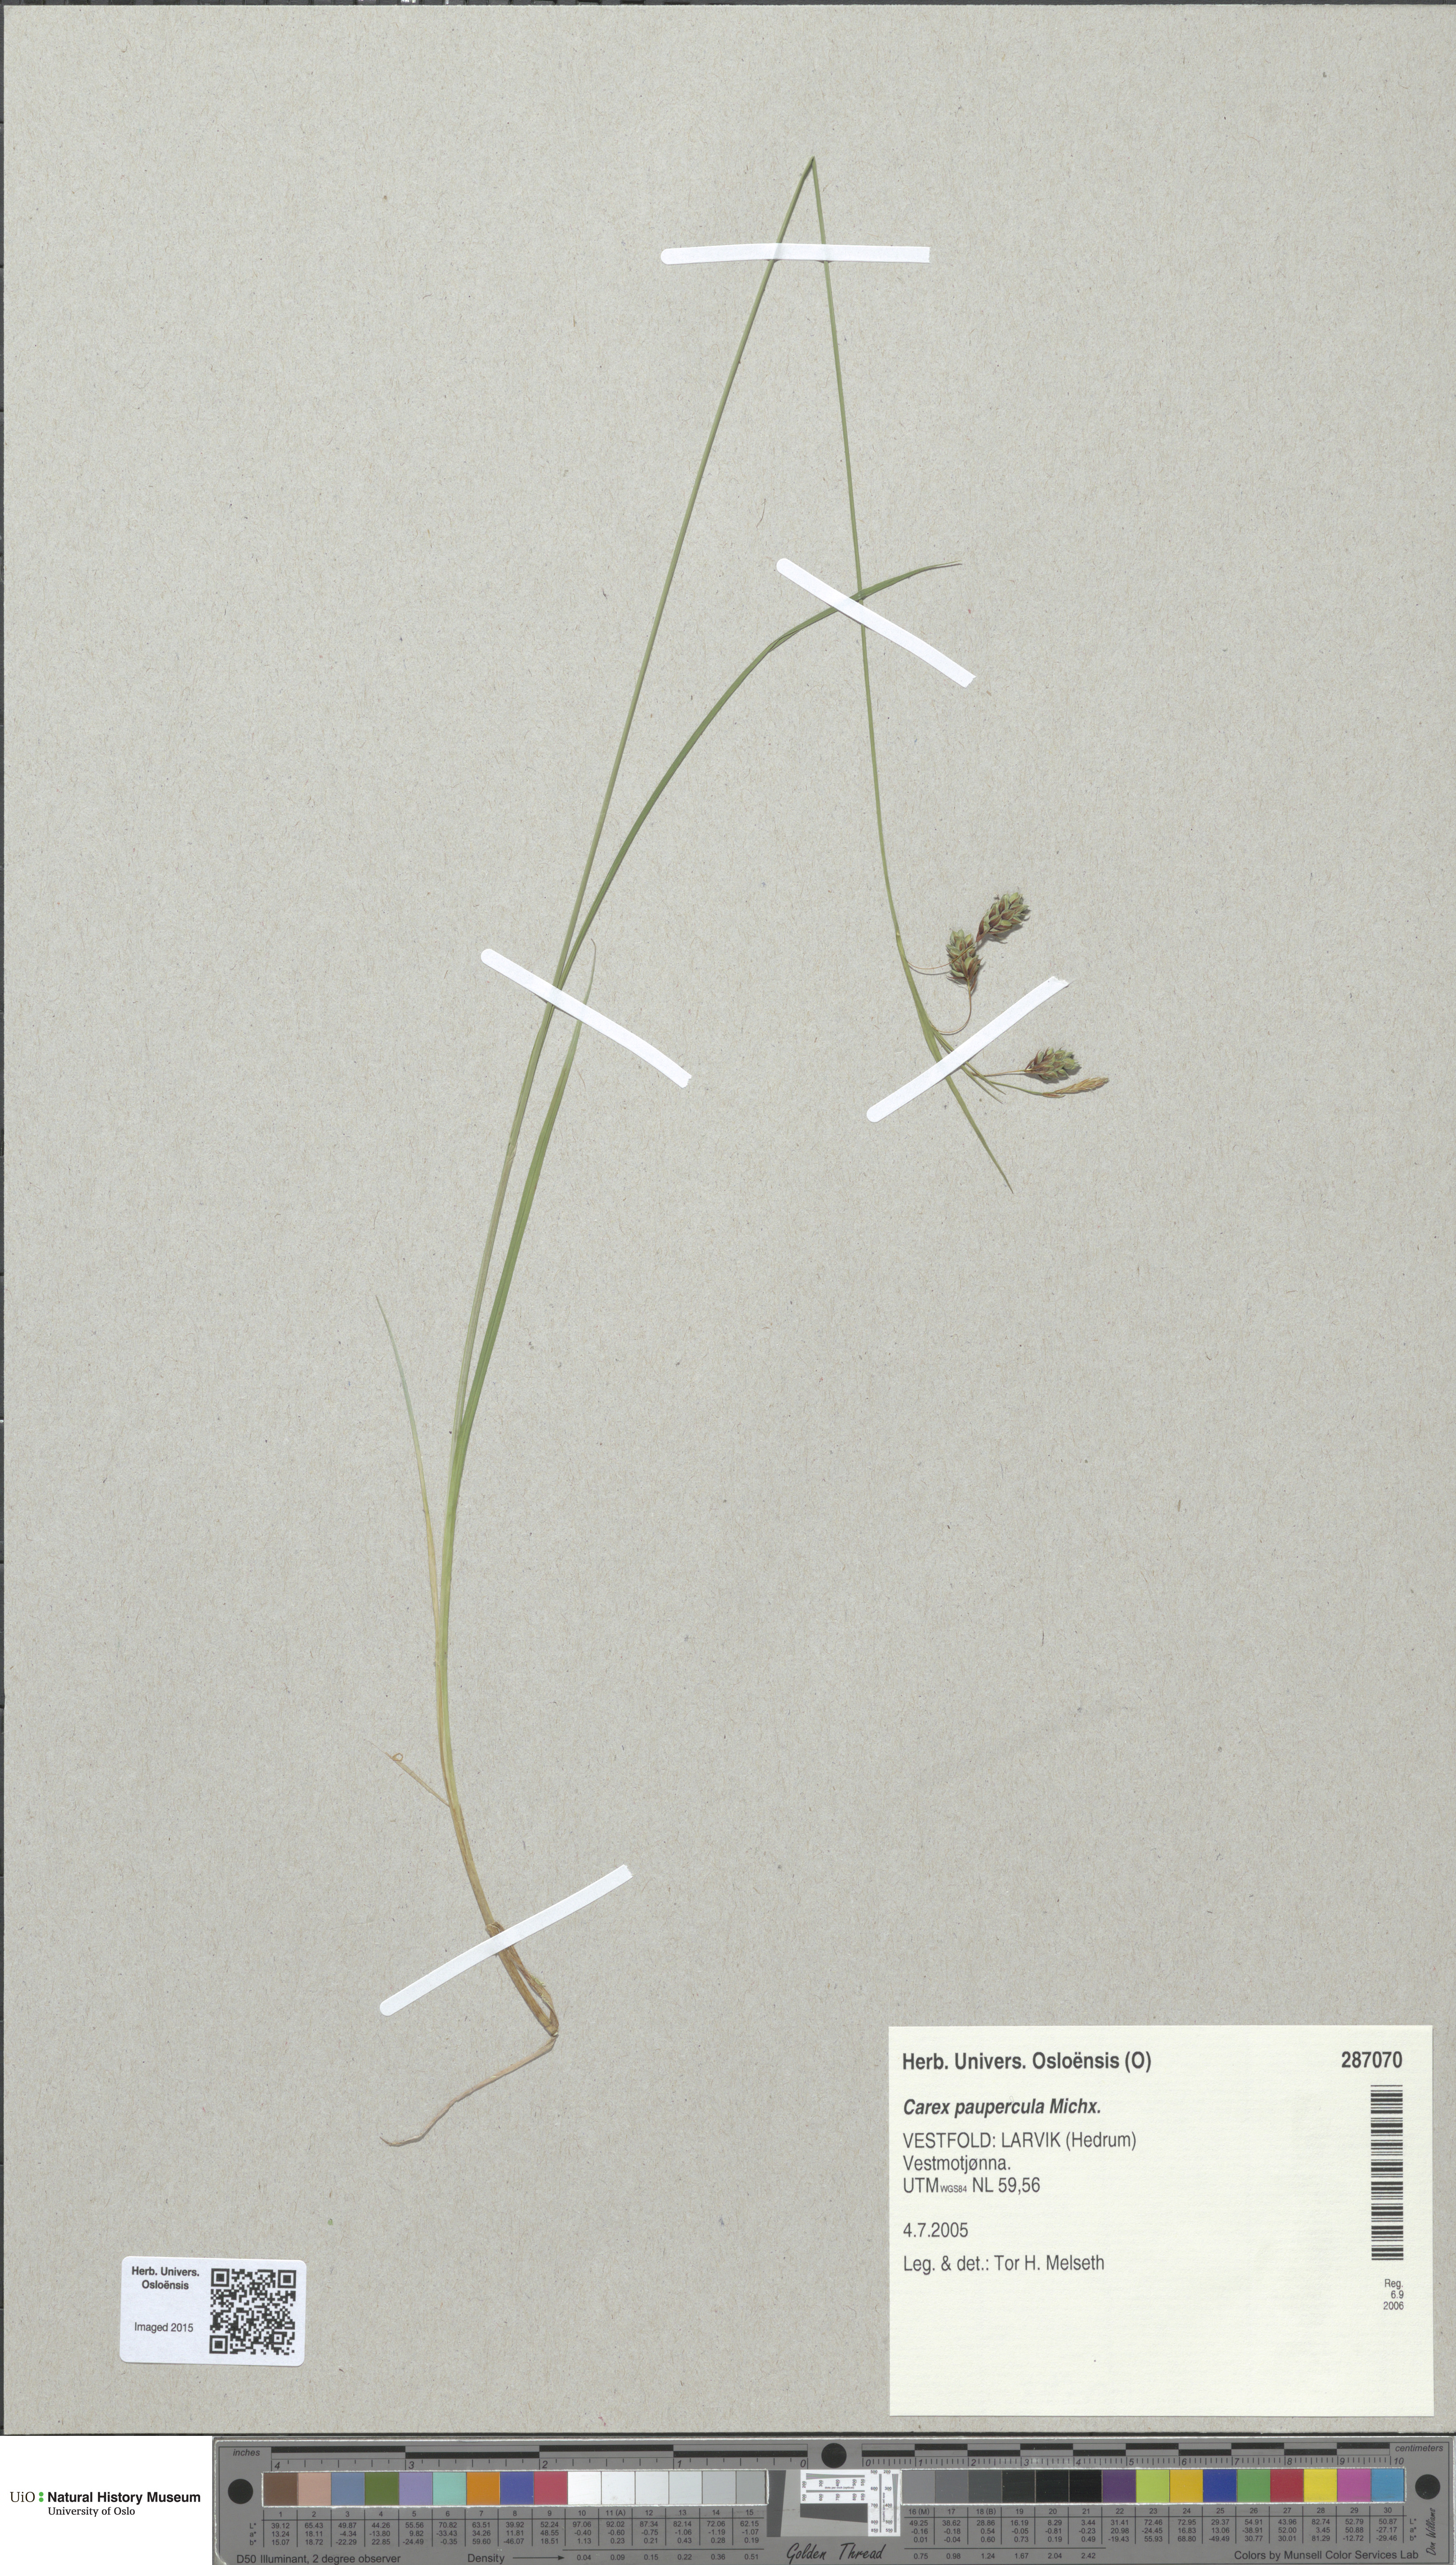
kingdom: Plantae
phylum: Tracheophyta
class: Liliopsida
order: Poales
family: Cyperaceae
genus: Carex
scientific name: Carex magellanica
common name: Bog sedge
